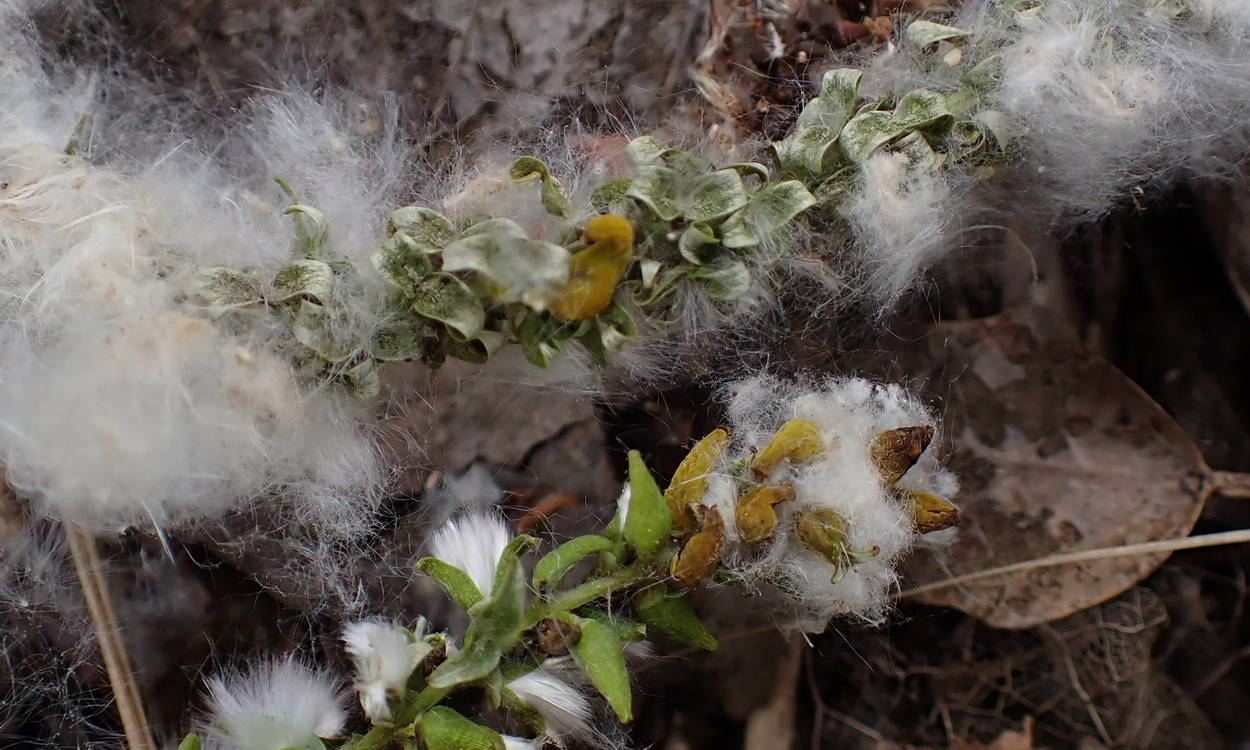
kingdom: Fungi
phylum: Ascomycota
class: Taphrinomycetes
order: Taphrinales
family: Taphrinaceae
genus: Taphrina
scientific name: Taphrina johansonii
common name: Aspen tongue
